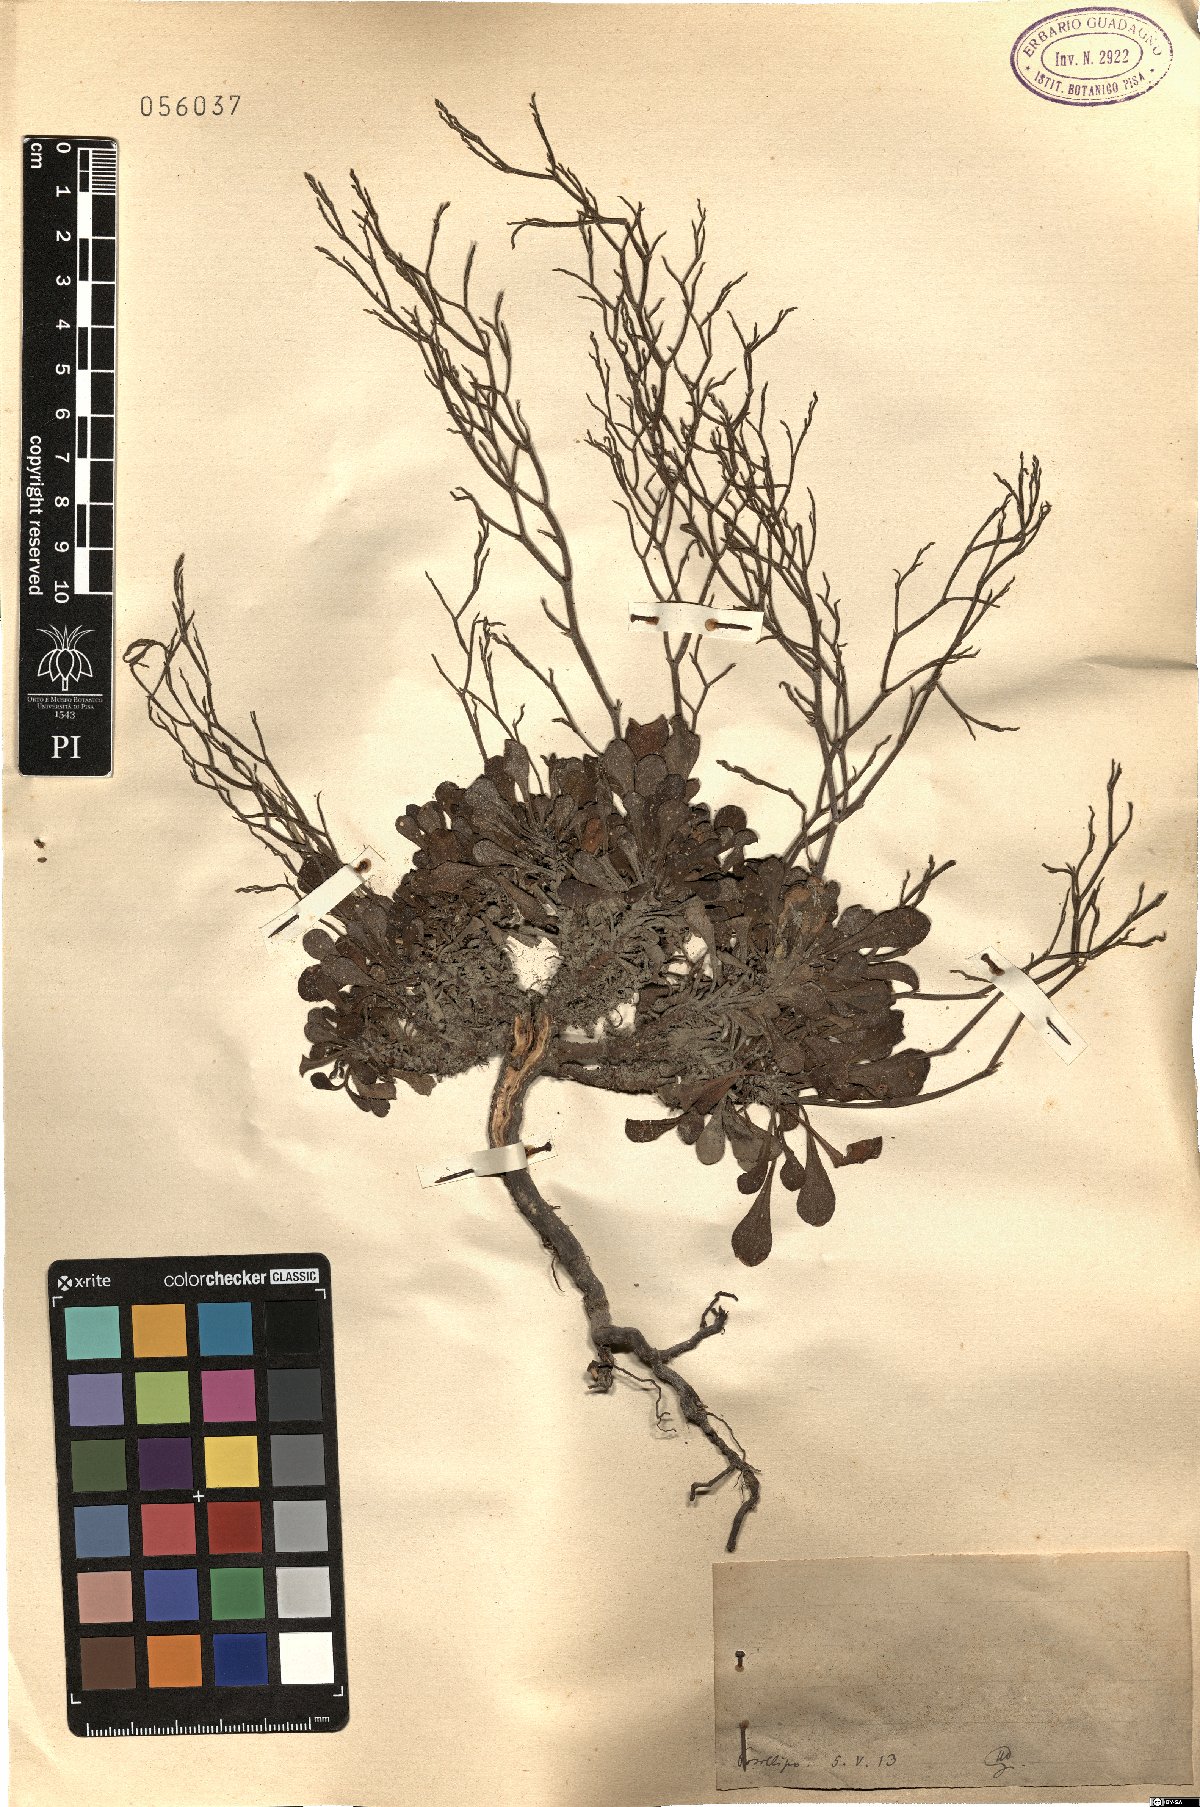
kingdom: Plantae
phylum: Tracheophyta
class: Magnoliopsida
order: Caryophyllales
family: Plumbaginaceae
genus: Armeria
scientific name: Armeria
